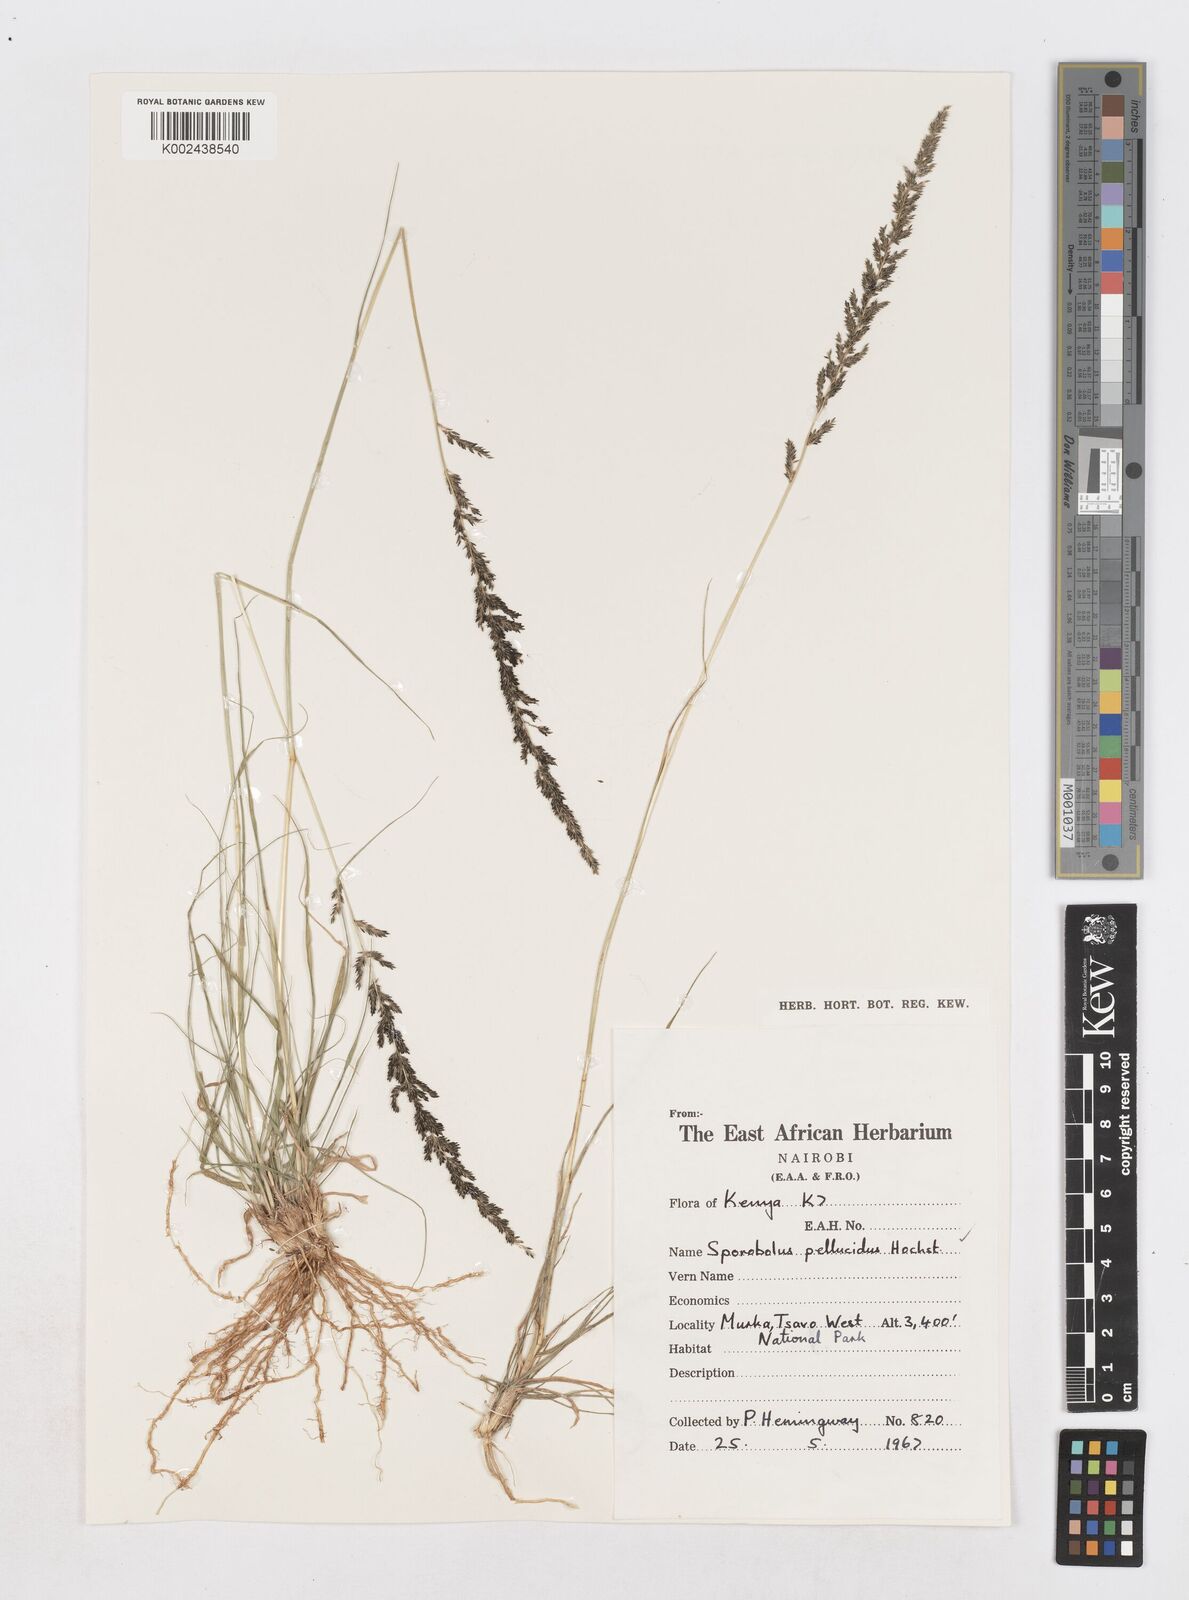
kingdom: Plantae
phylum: Tracheophyta
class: Liliopsida
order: Poales
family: Poaceae
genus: Sporobolus
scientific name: Sporobolus pellucidus
